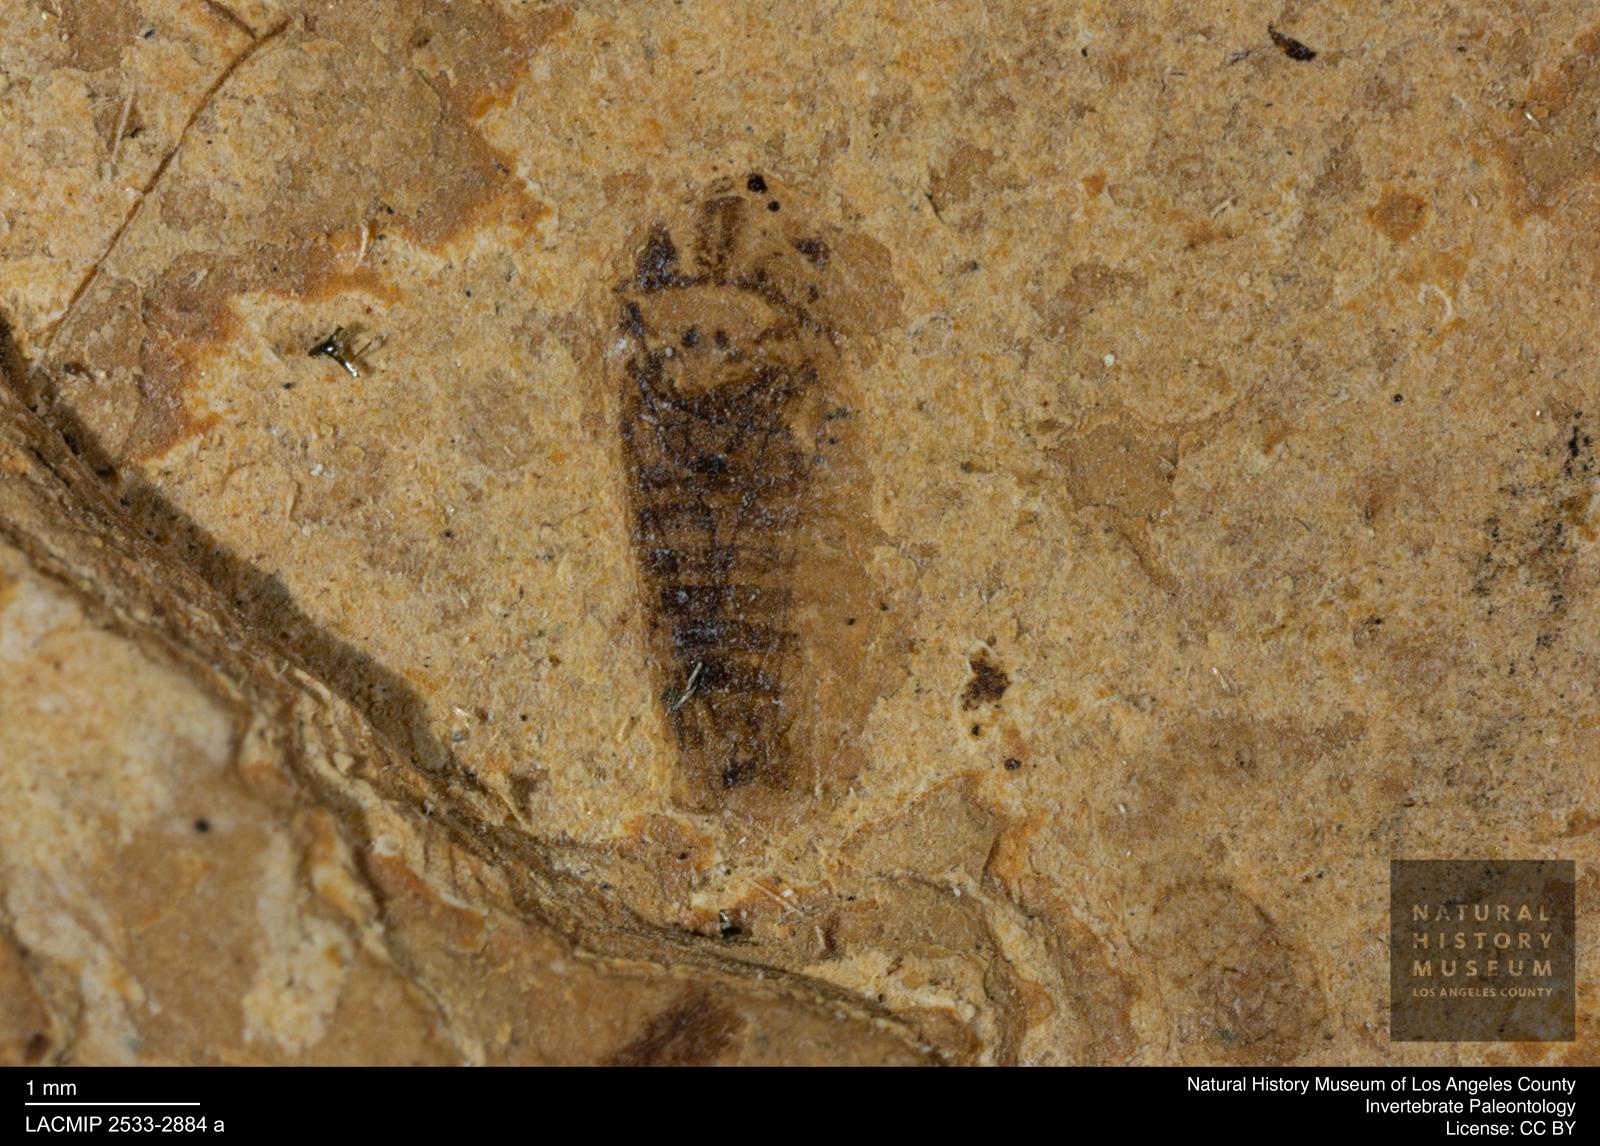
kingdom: Animalia
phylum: Arthropoda
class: Insecta
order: Hemiptera
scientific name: Hemiptera
